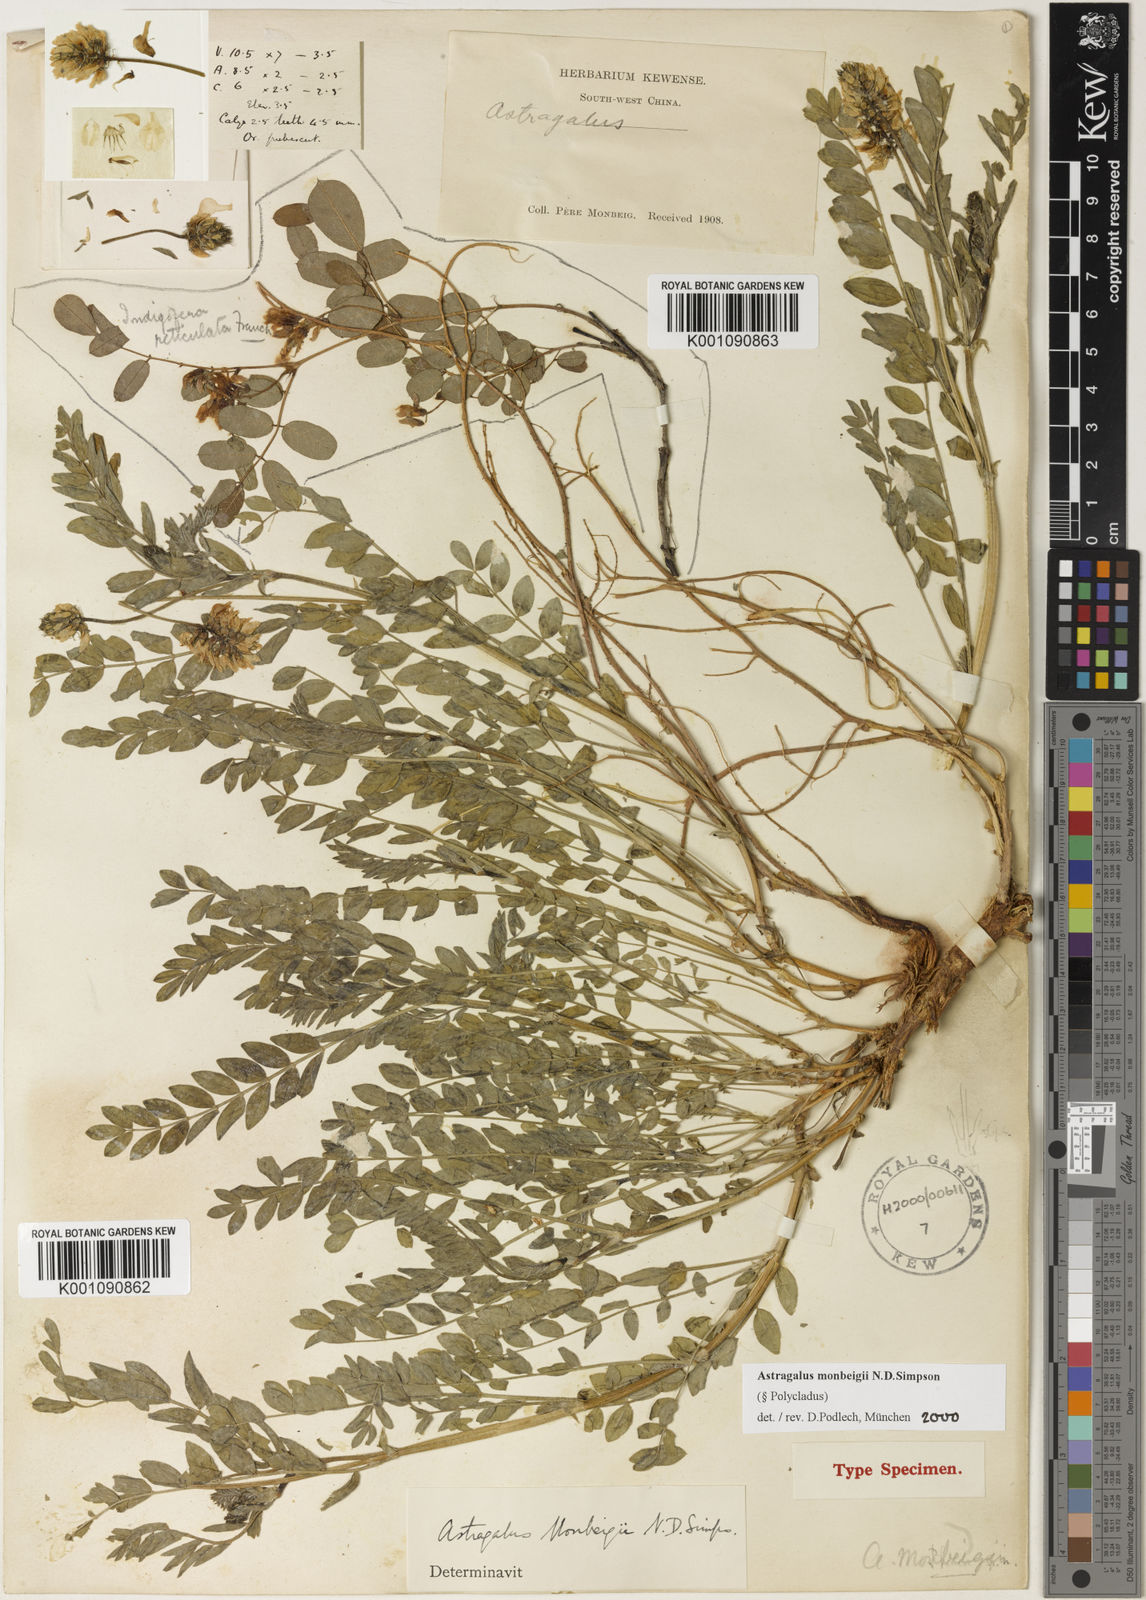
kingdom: Plantae
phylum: Tracheophyta
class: Magnoliopsida
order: Fabales
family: Fabaceae
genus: Astragalus
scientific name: Astragalus
